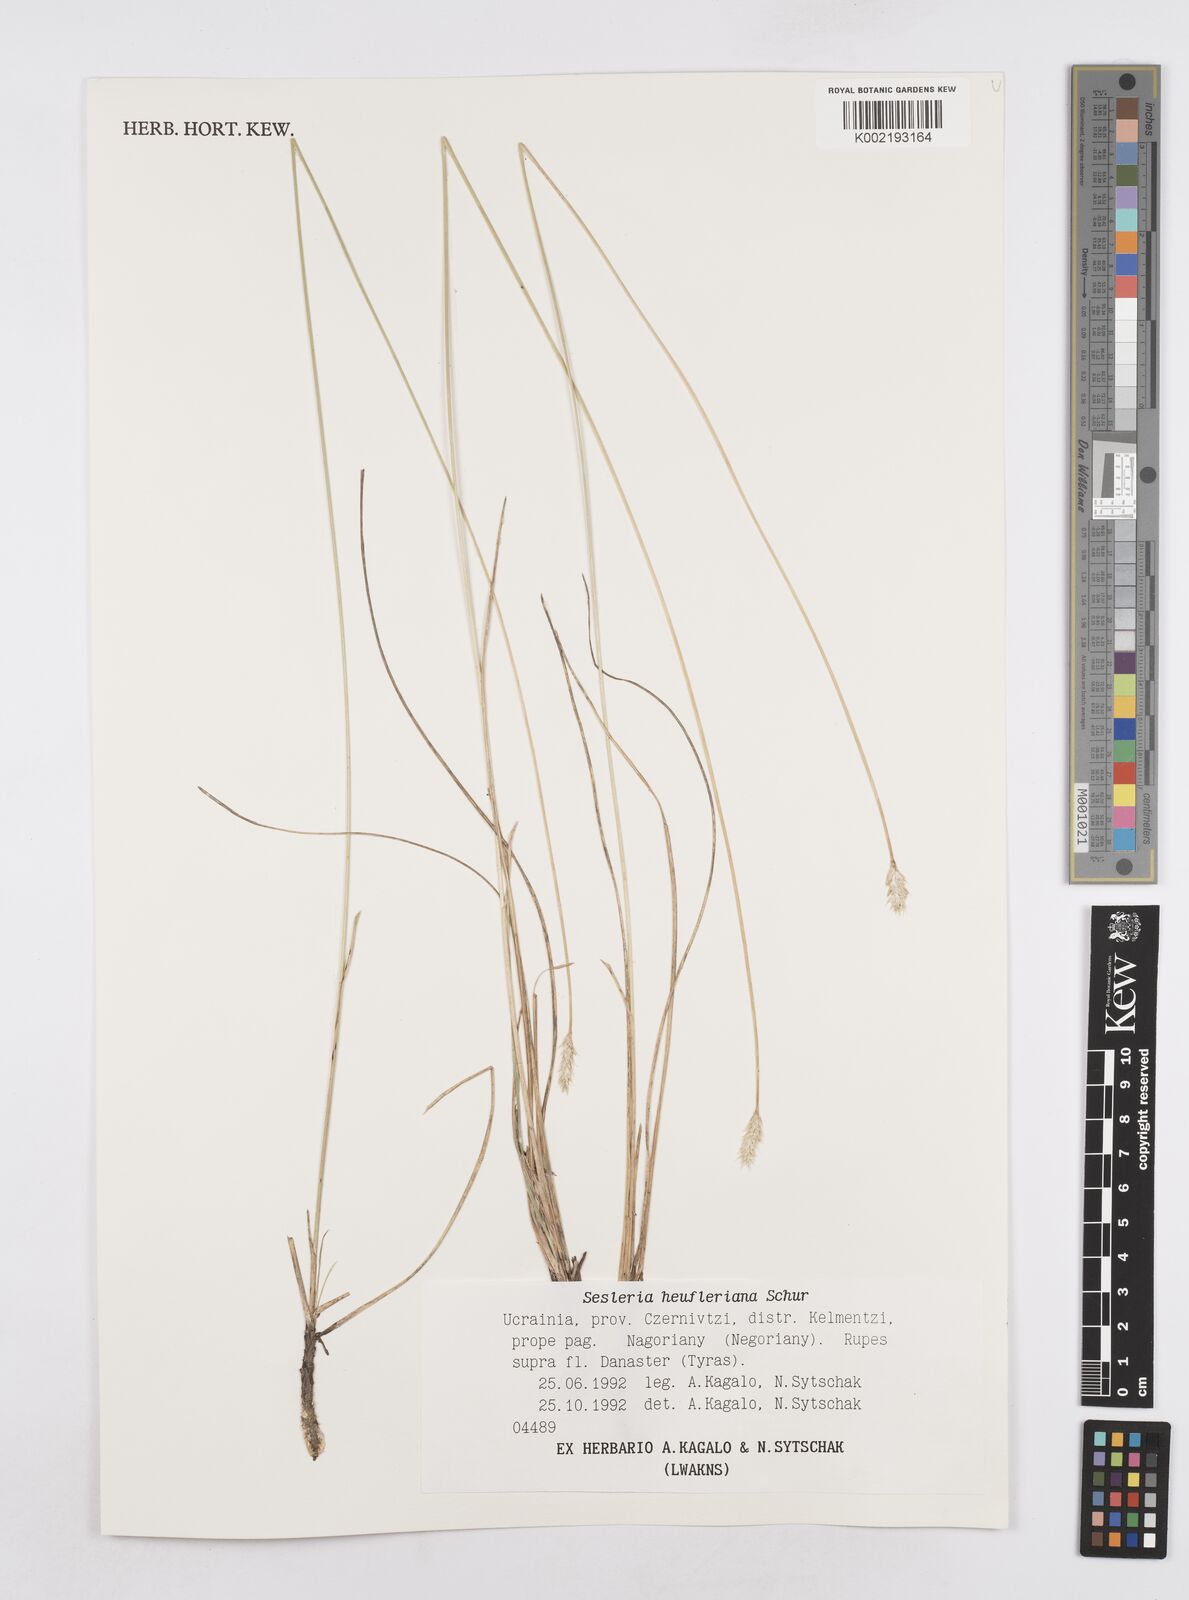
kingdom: Plantae
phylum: Tracheophyta
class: Liliopsida
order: Poales
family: Poaceae
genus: Sesleria
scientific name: Sesleria heufleriana
